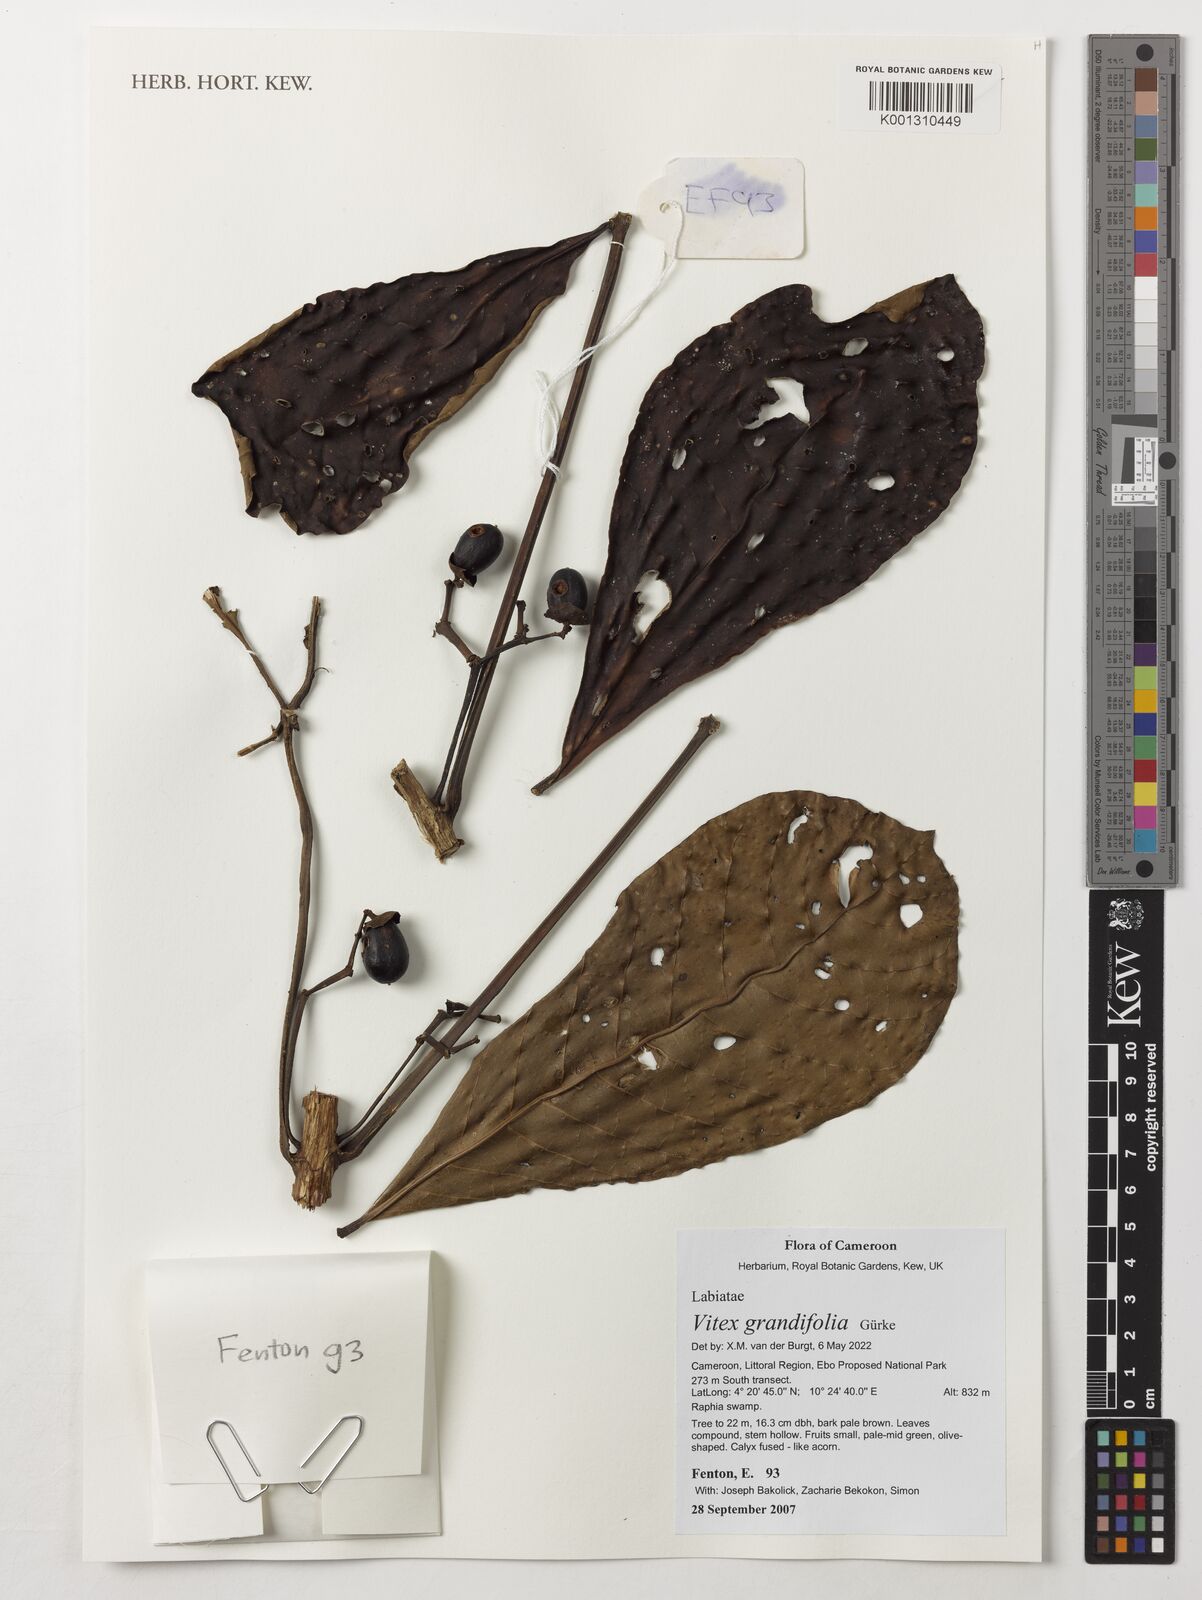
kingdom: Plantae
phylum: Tracheophyta
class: Magnoliopsida
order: Lamiales
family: Lamiaceae
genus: Vitex
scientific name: Vitex grandifolia
